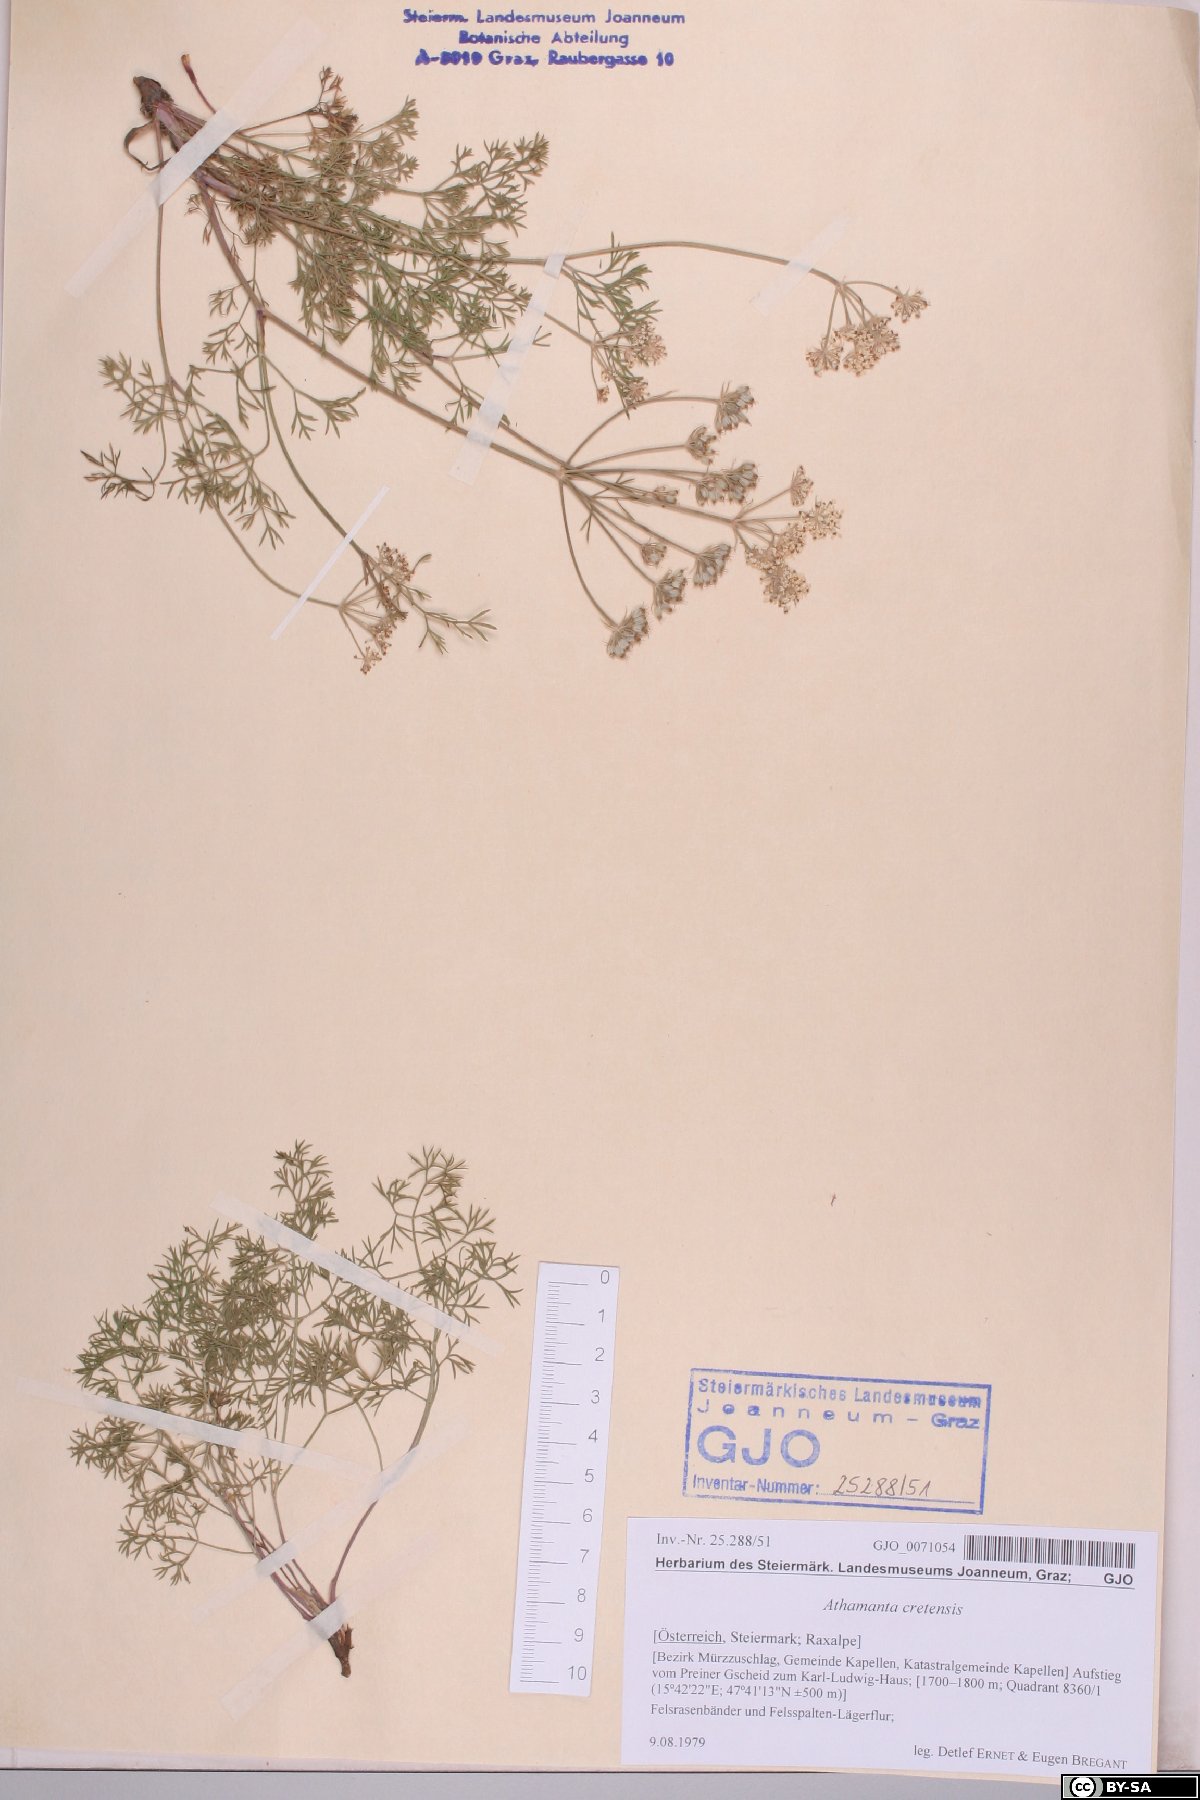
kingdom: Plantae
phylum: Tracheophyta
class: Magnoliopsida
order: Apiales
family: Apiaceae
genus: Athamanta
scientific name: Athamanta cretensis
